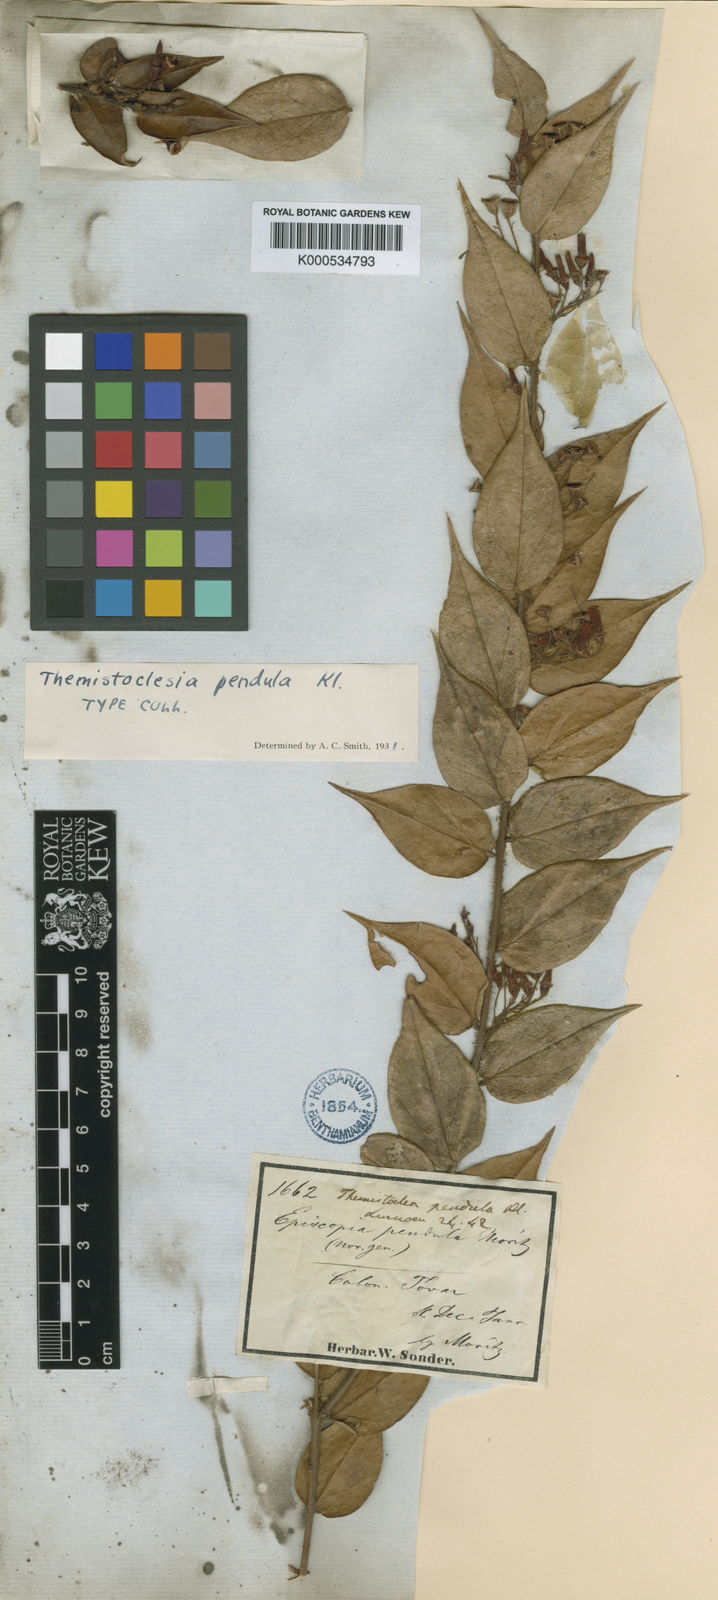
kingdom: Plantae
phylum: Tracheophyta
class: Magnoliopsida
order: Ericales
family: Ericaceae
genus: Themistoclesia
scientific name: Themistoclesia dependens
